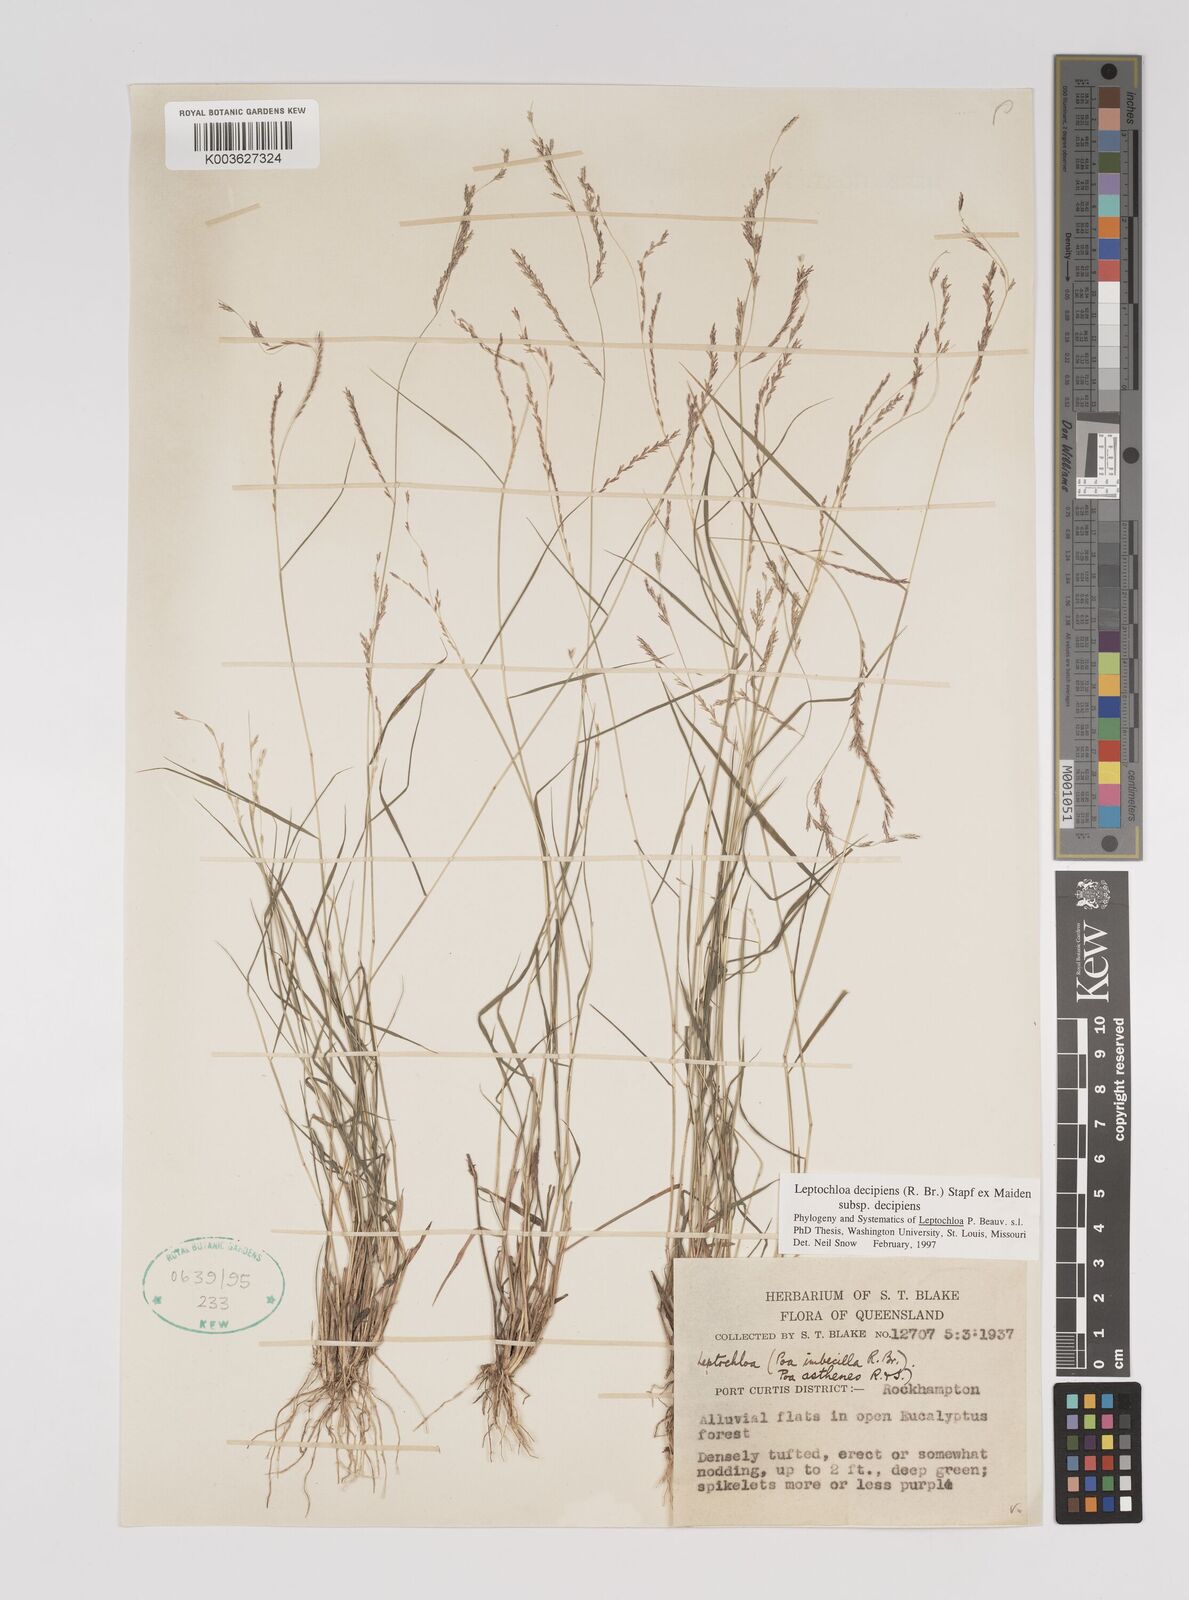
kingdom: Plantae
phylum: Tracheophyta
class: Liliopsida
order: Poales
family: Poaceae
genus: Leptochloa
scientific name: Leptochloa decipiens
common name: Australian sprangletop
